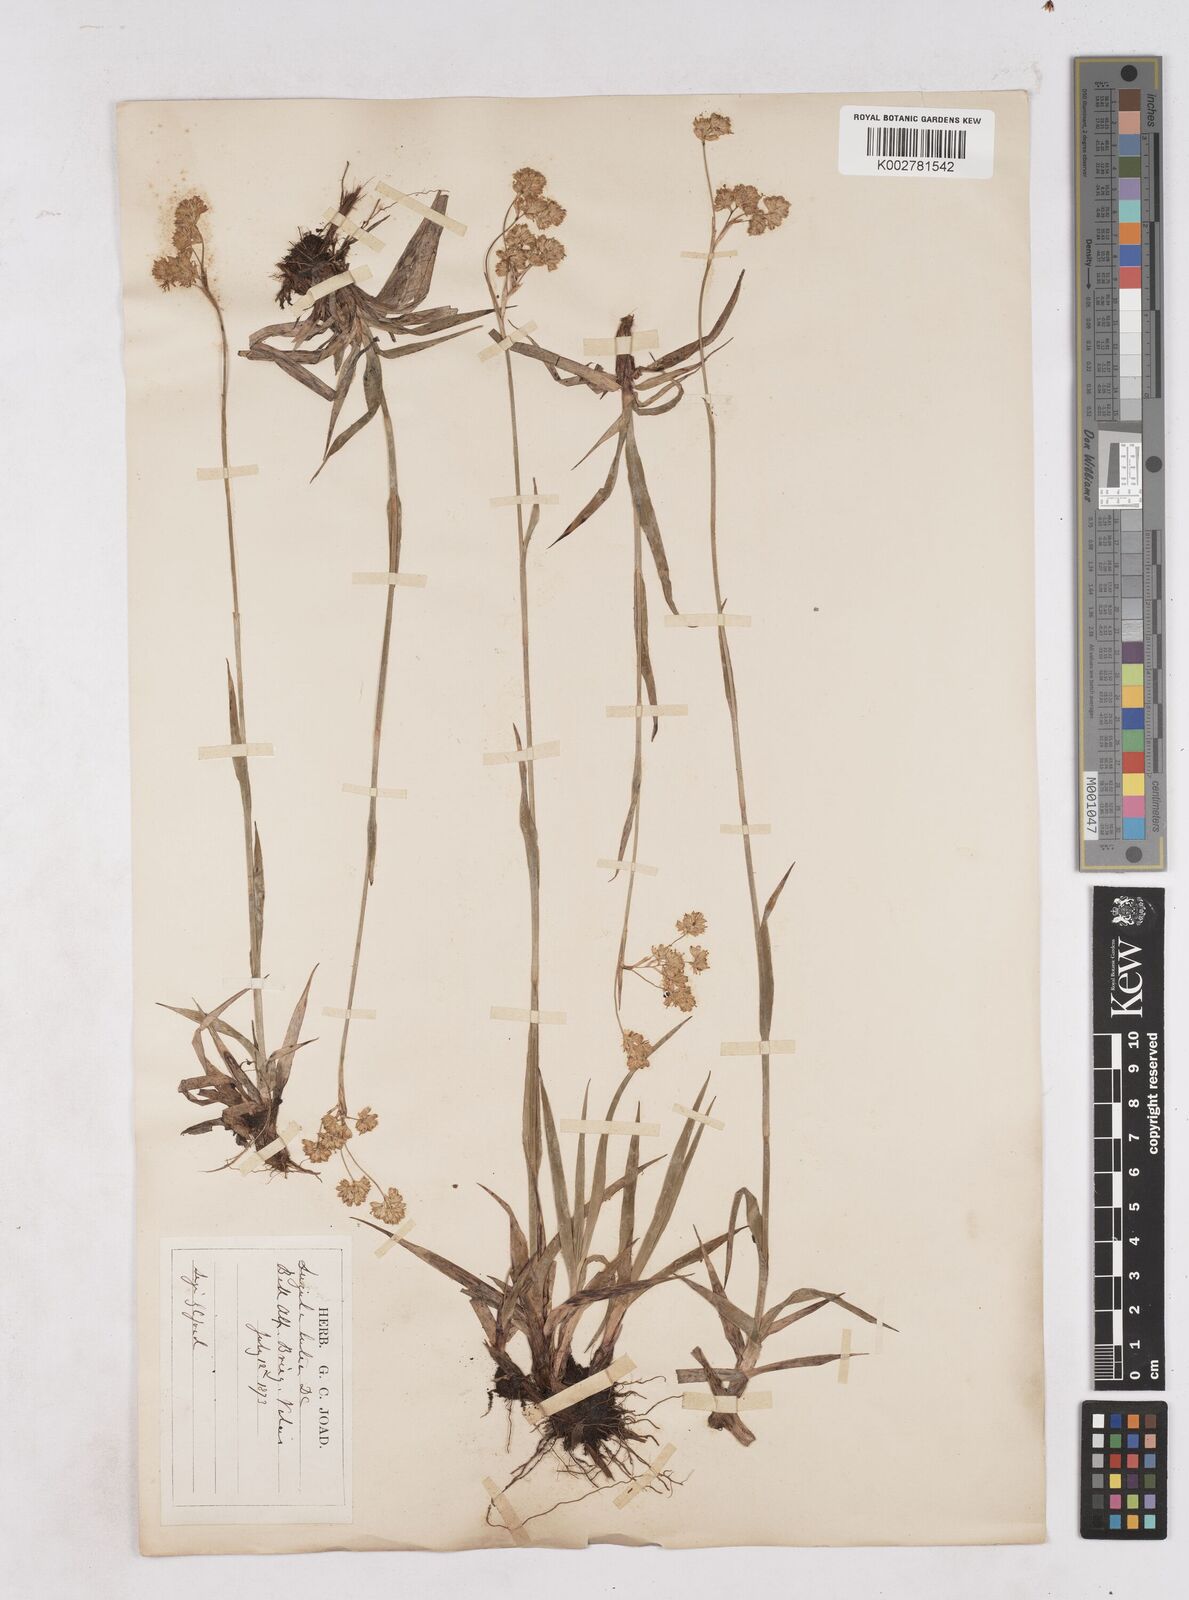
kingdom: Plantae
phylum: Tracheophyta
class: Liliopsida
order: Poales
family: Juncaceae
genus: Luzula
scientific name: Luzula lutea
